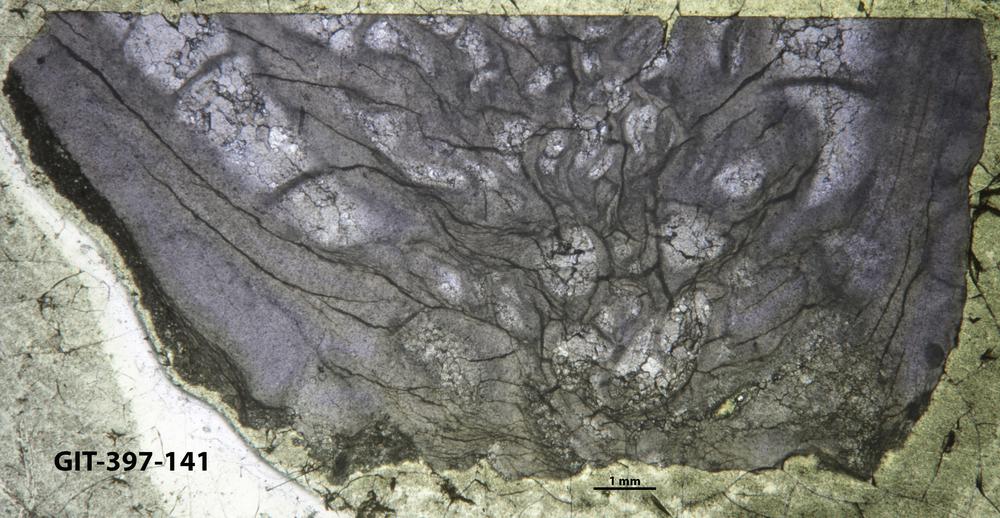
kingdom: Animalia
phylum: Cnidaria
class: Anthozoa
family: Streptelasmatidae
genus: Rhegmaphyllum
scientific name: Rhegmaphyllum
